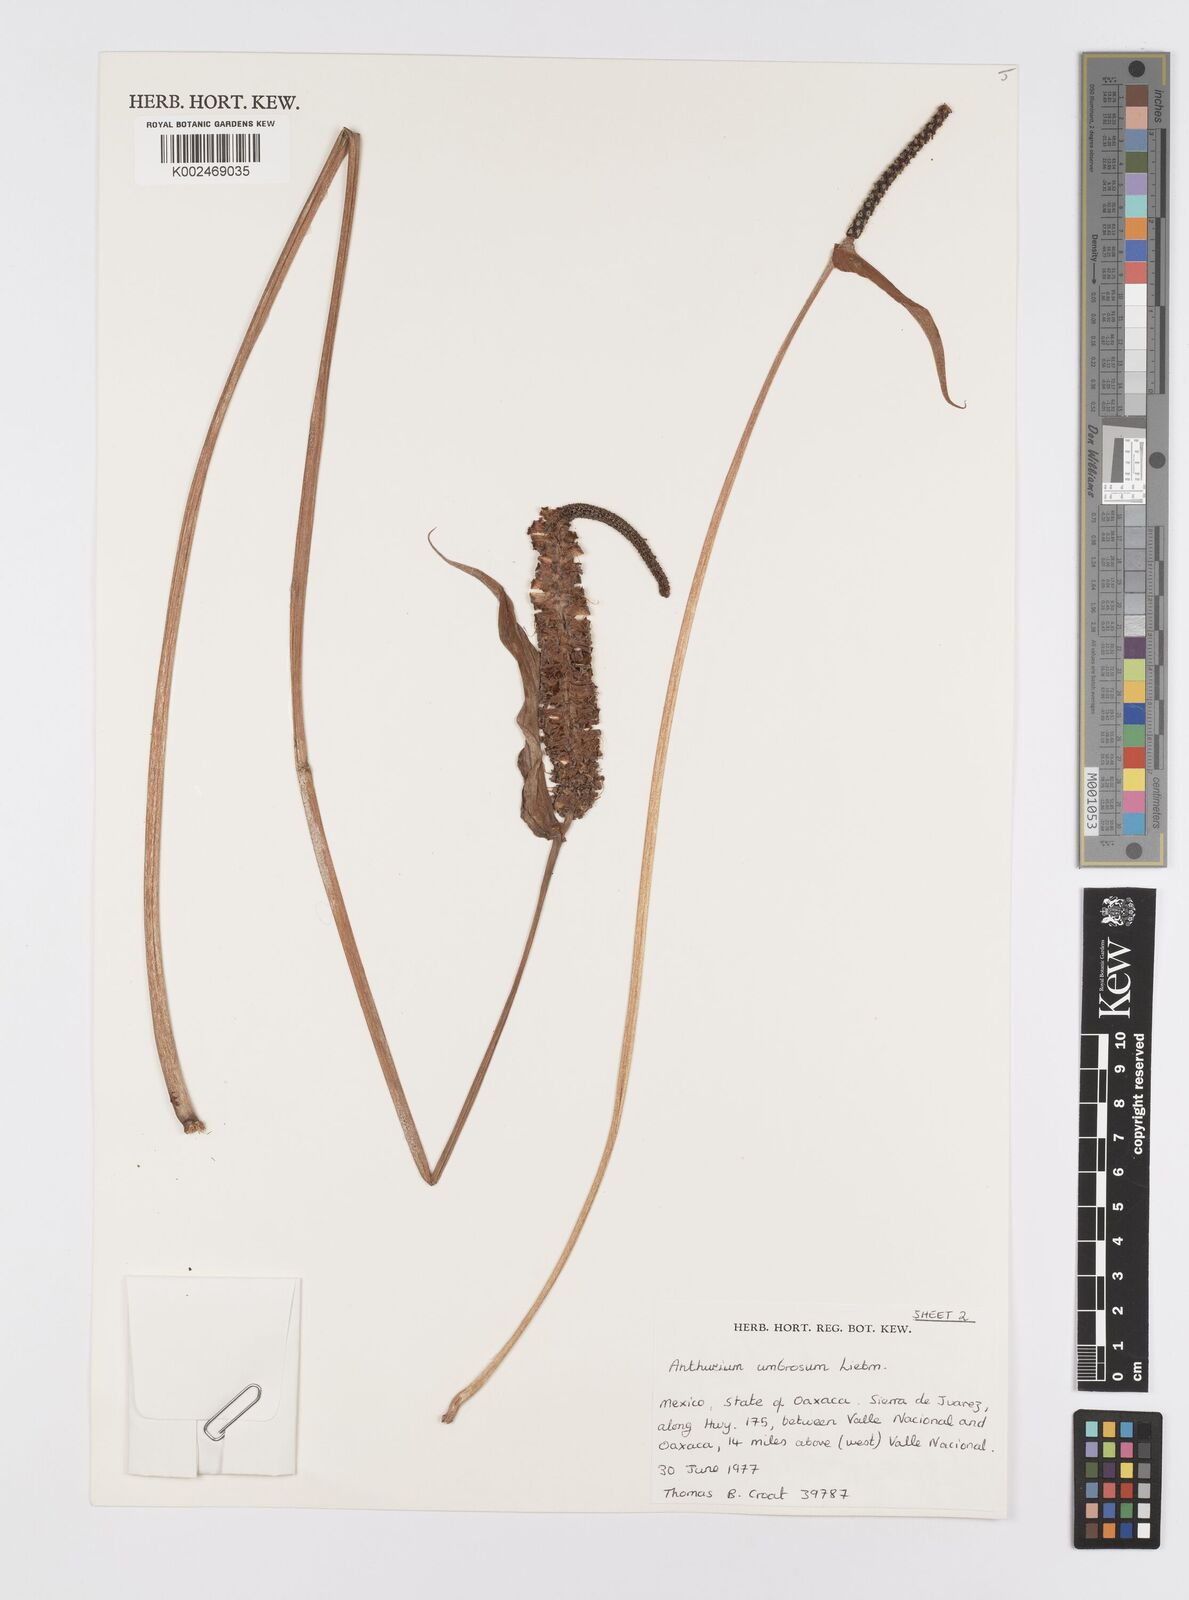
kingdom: Plantae
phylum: Tracheophyta
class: Liliopsida
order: Alismatales
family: Araceae
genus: Anthurium
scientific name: Anthurium umbrosum
